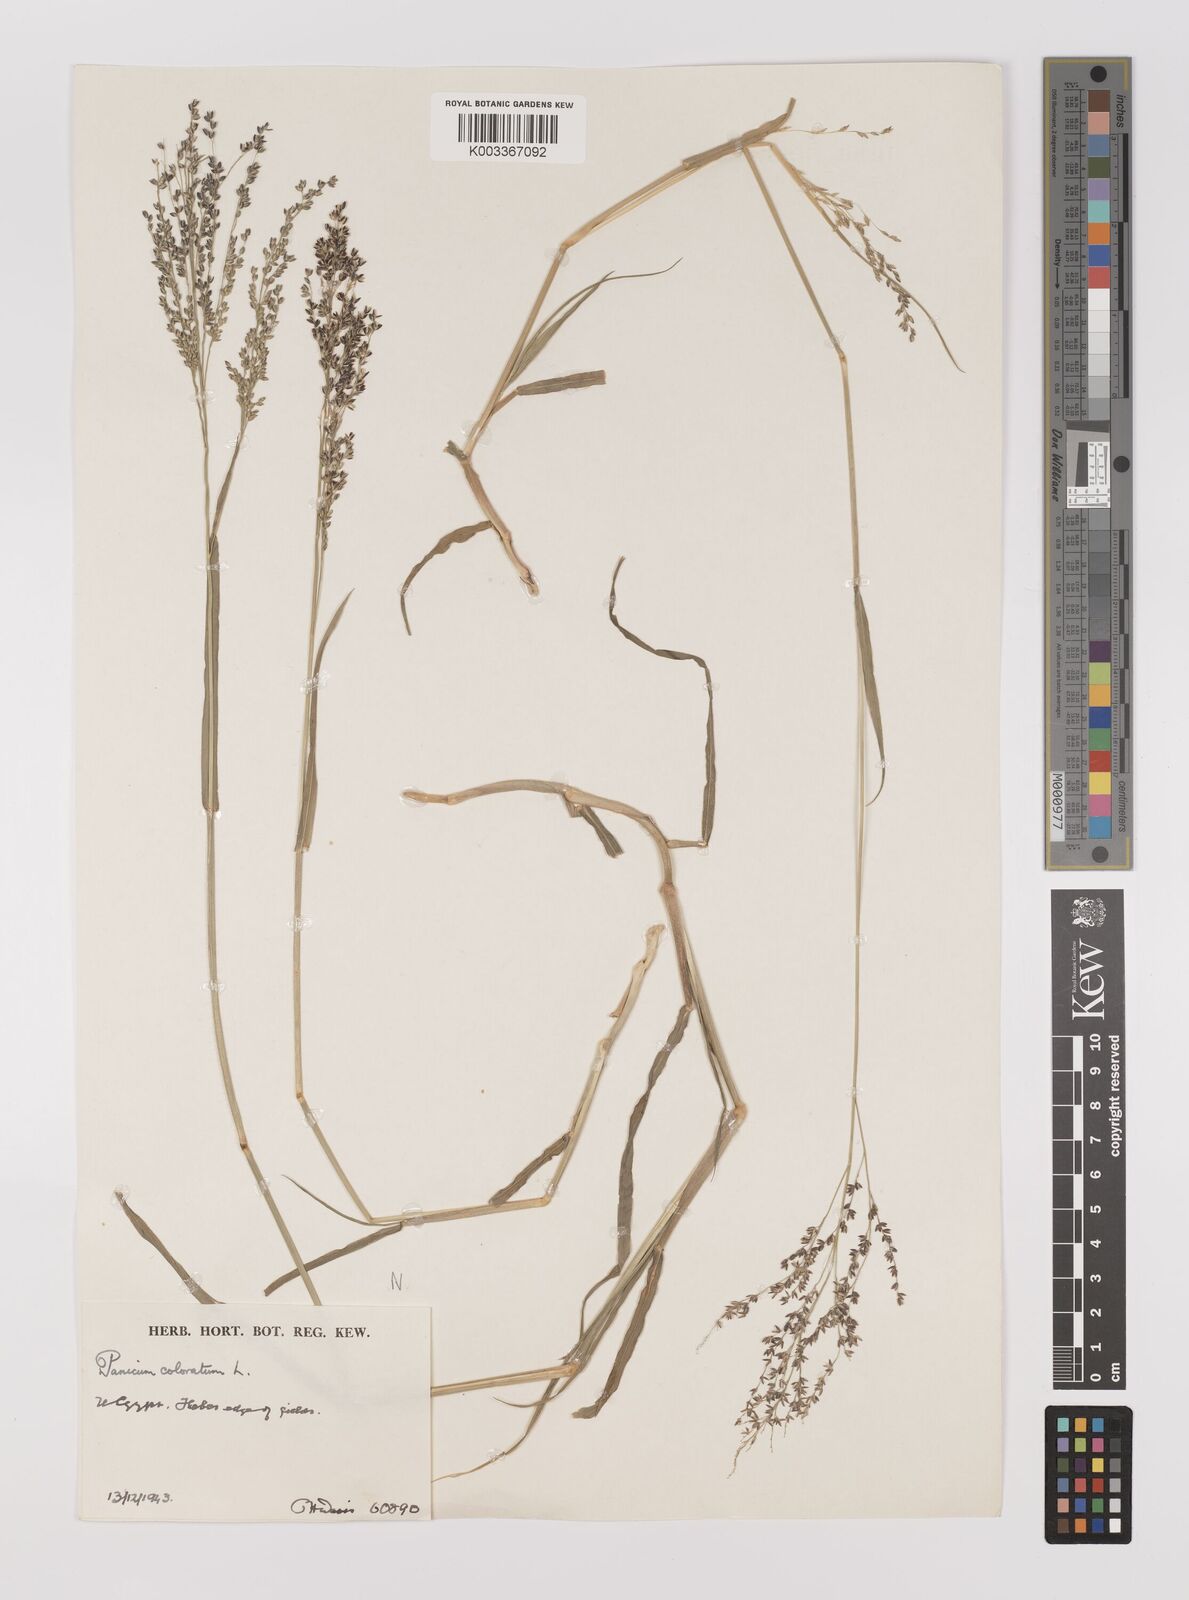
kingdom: Plantae
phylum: Tracheophyta
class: Liliopsida
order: Poales
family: Poaceae
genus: Panicum
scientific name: Panicum coloratum
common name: Kleingrass
